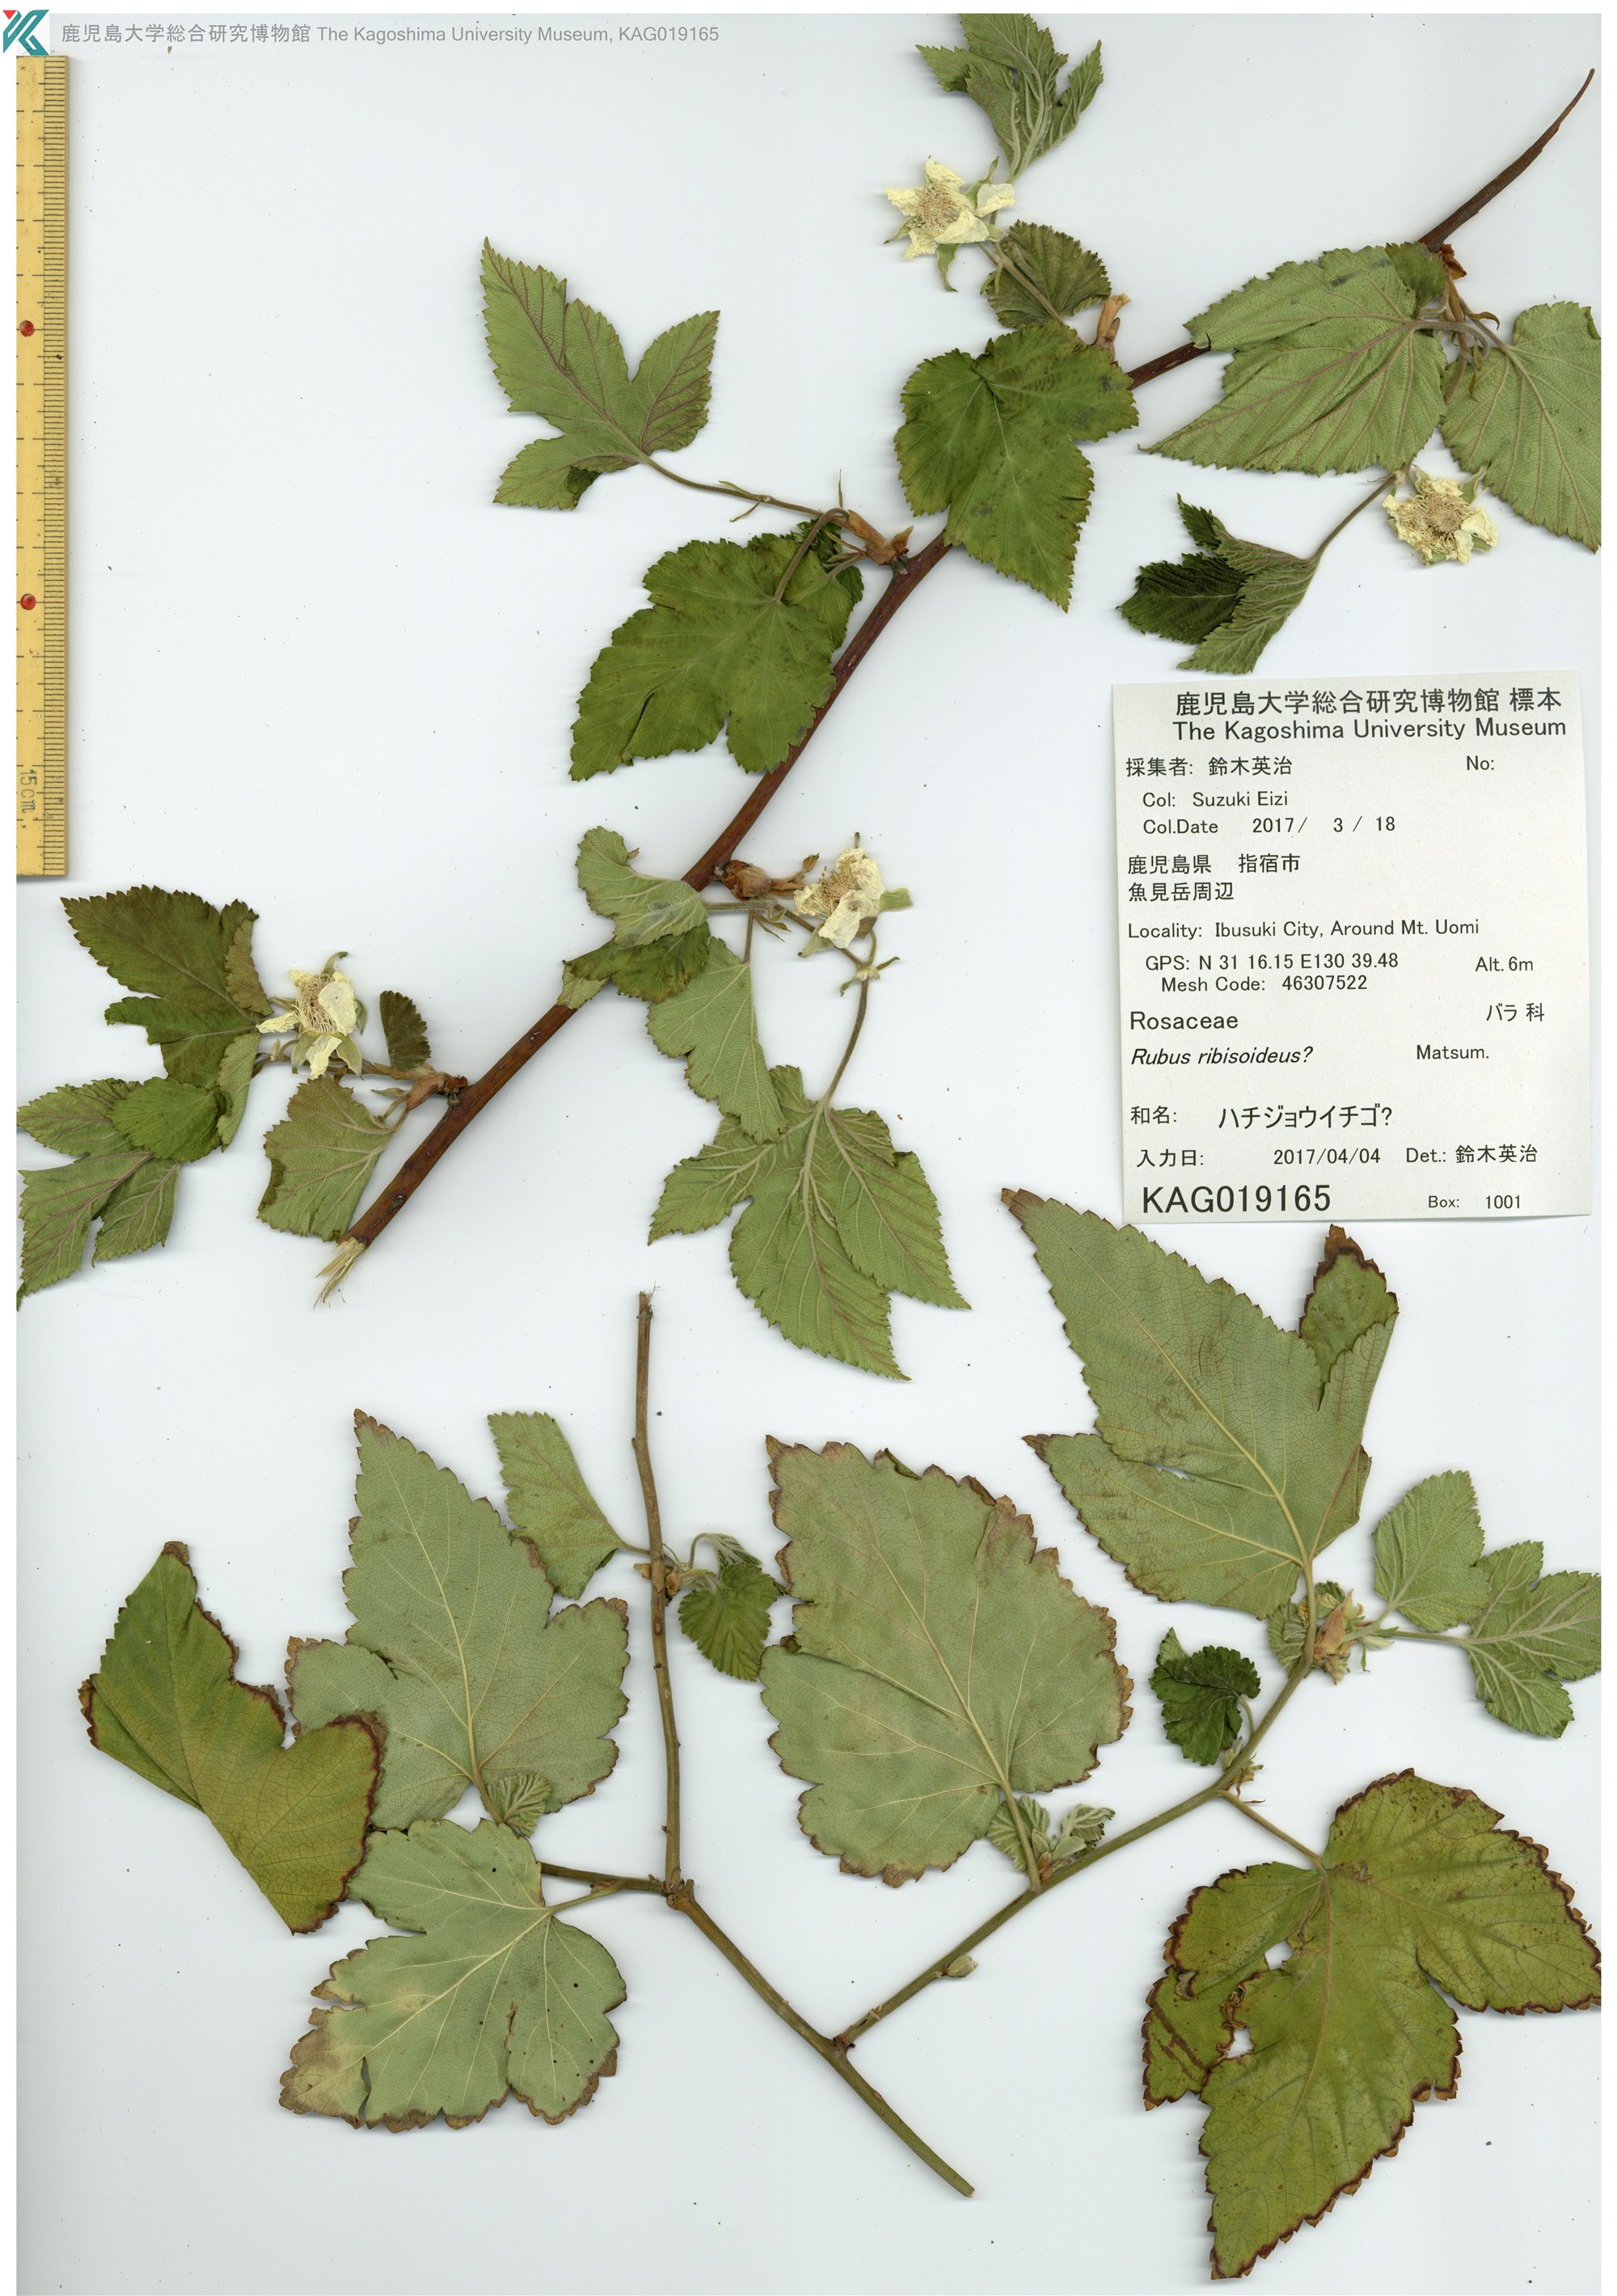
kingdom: Plantae
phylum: Tracheophyta
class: Magnoliopsida
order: Rosales
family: Rosaceae
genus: Rubus
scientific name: Rubus ribisoideus
